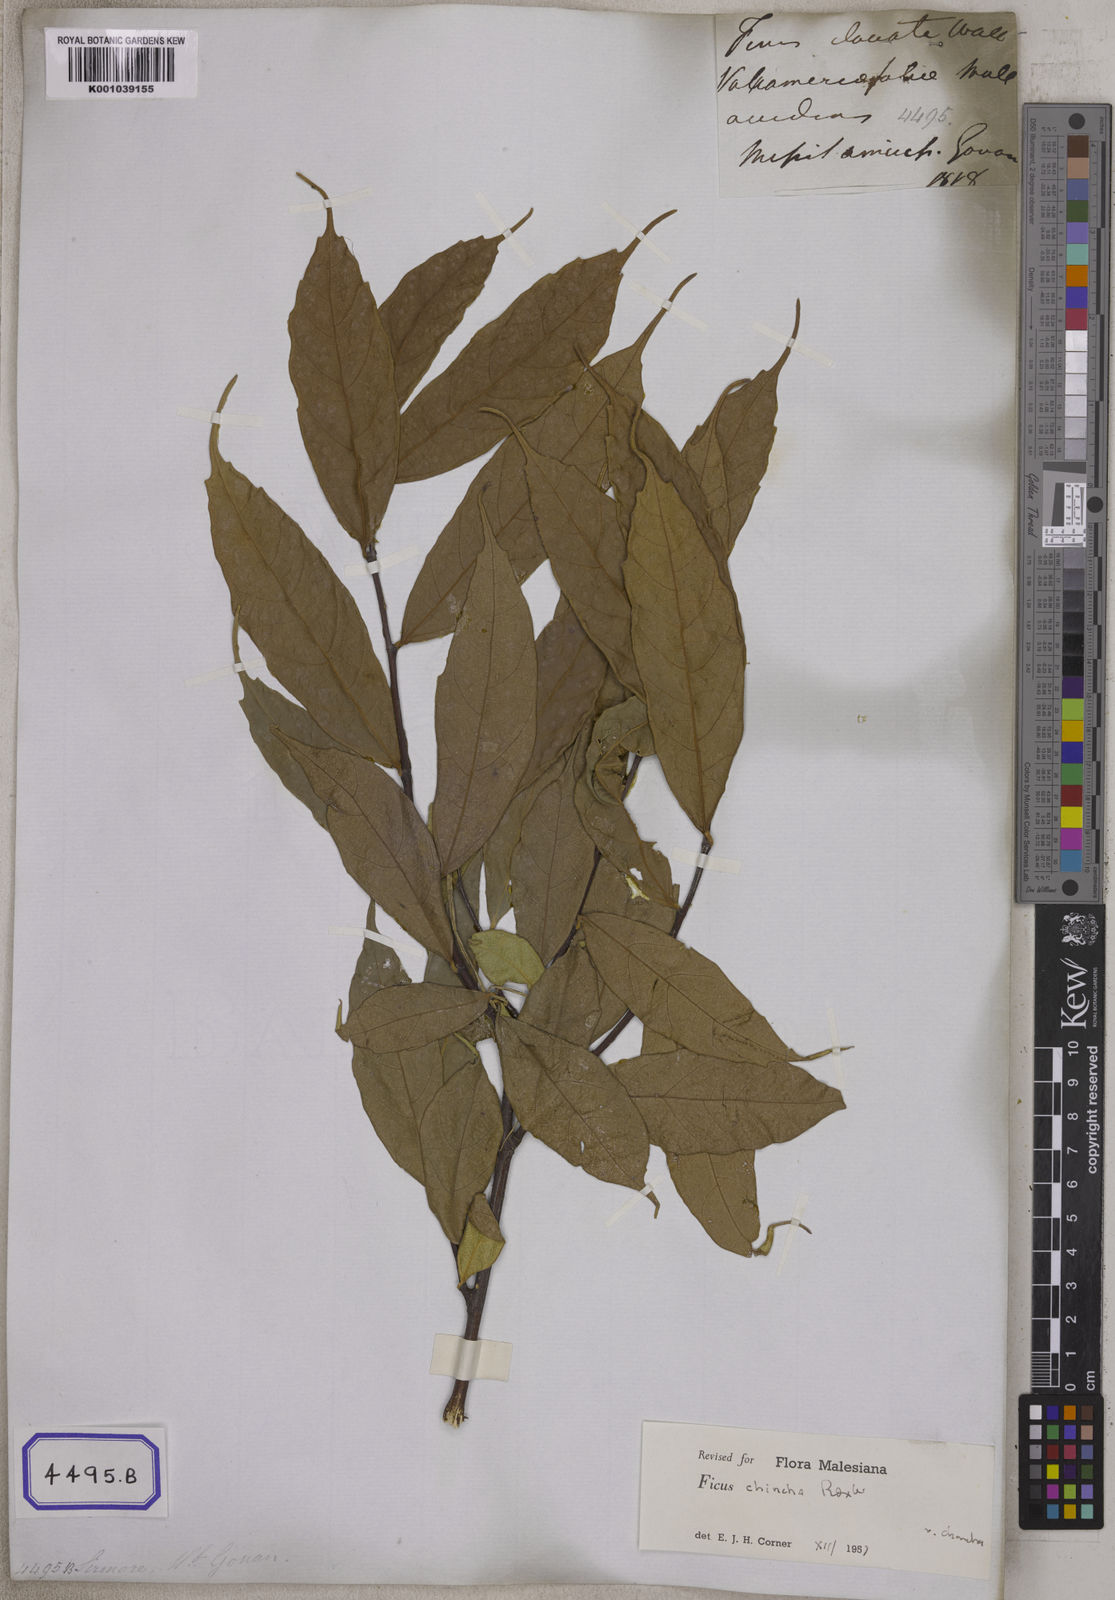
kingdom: Plantae
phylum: Tracheophyta
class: Magnoliopsida
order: Rosales
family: Moraceae
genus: Ficus
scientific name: Ficus
